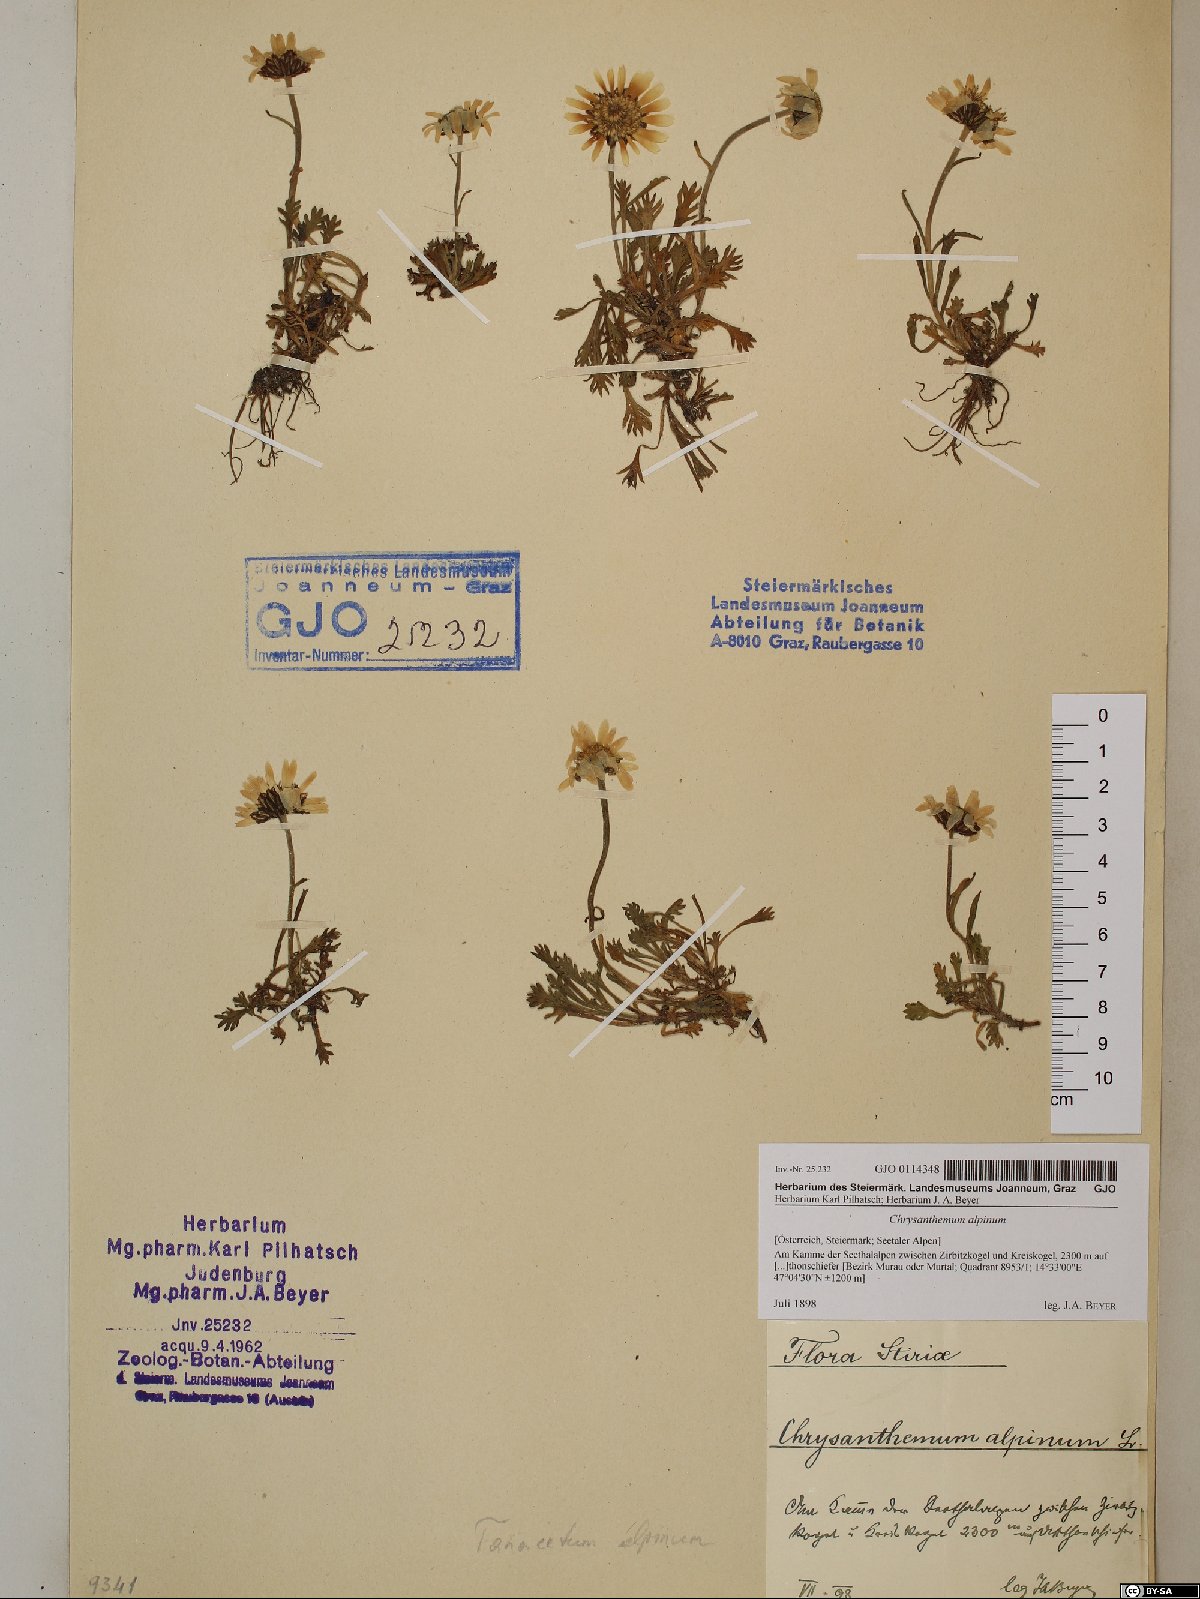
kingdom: Plantae
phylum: Tracheophyta
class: Magnoliopsida
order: Asterales
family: Asteraceae
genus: Leucanthemopsis
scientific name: Leucanthemopsis alpina
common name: Alpine moon daisy
